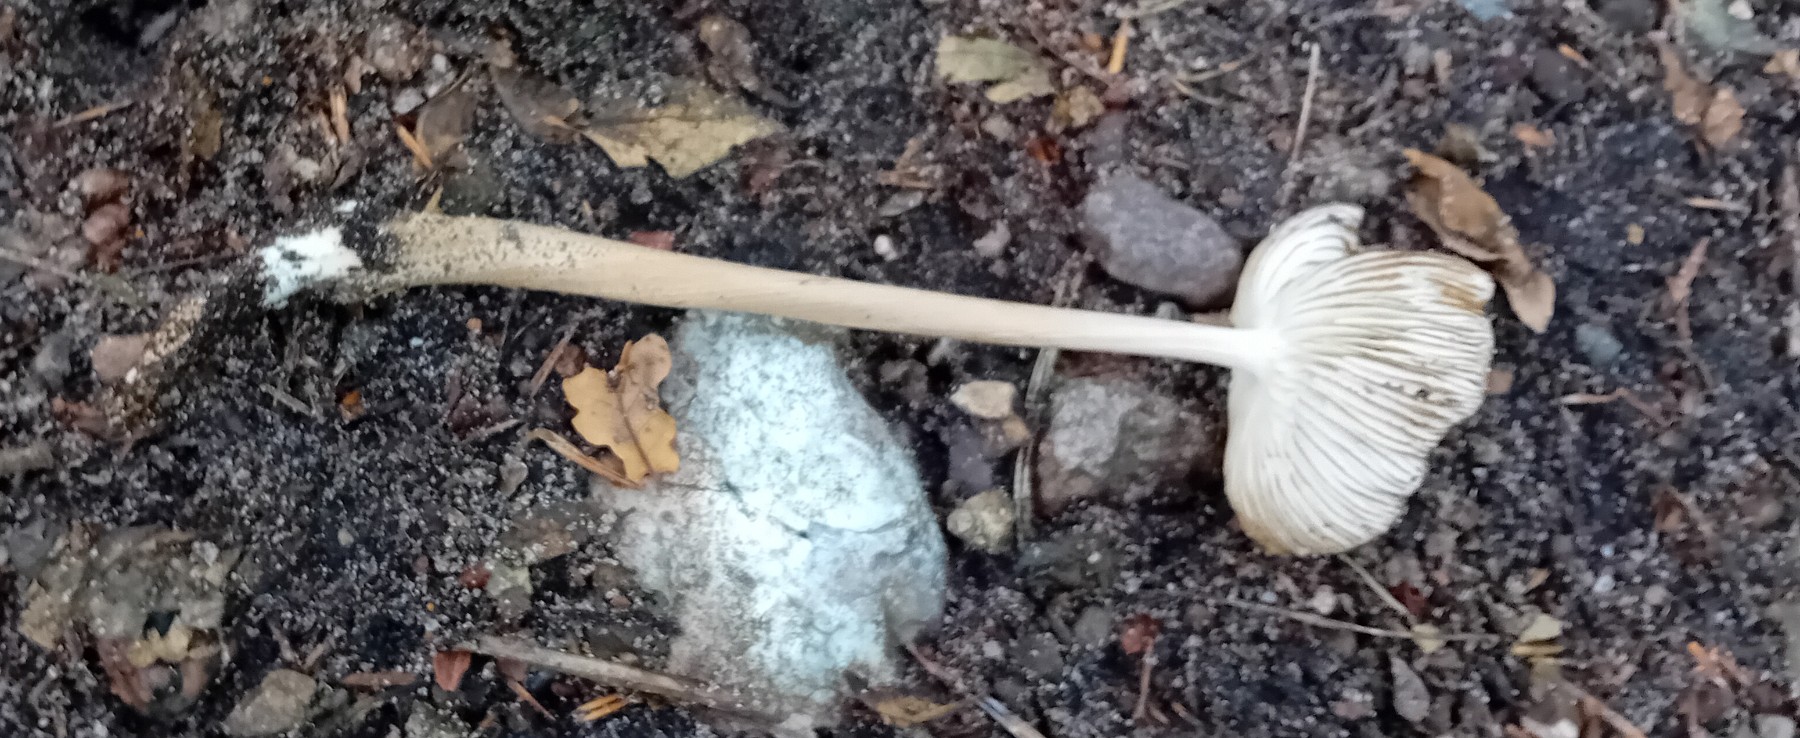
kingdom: Fungi
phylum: Basidiomycota
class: Agaricomycetes
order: Agaricales
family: Physalacriaceae
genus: Hymenopellis
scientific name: Hymenopellis radicata
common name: almindelig pælerodshat
